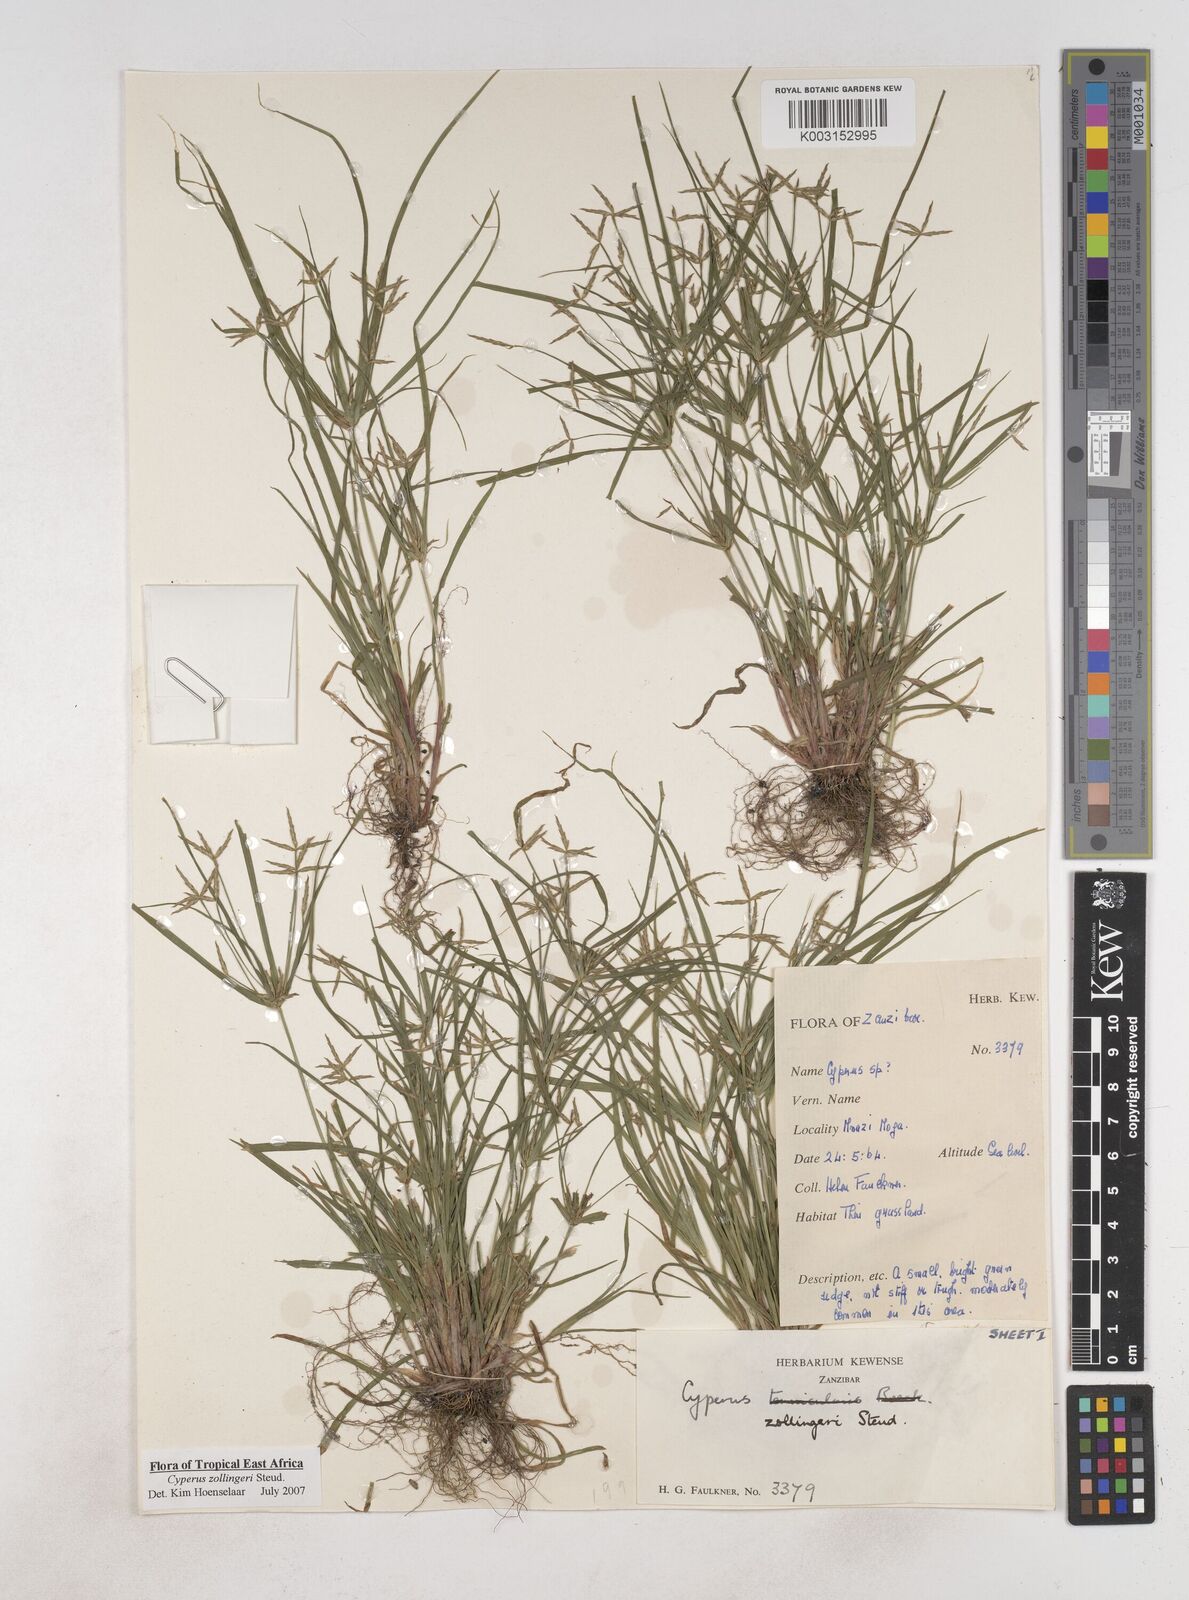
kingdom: Plantae
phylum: Tracheophyta
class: Liliopsida
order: Poales
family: Cyperaceae
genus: Cyperus
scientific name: Cyperus zollingeri
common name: Roadside flatsedge
